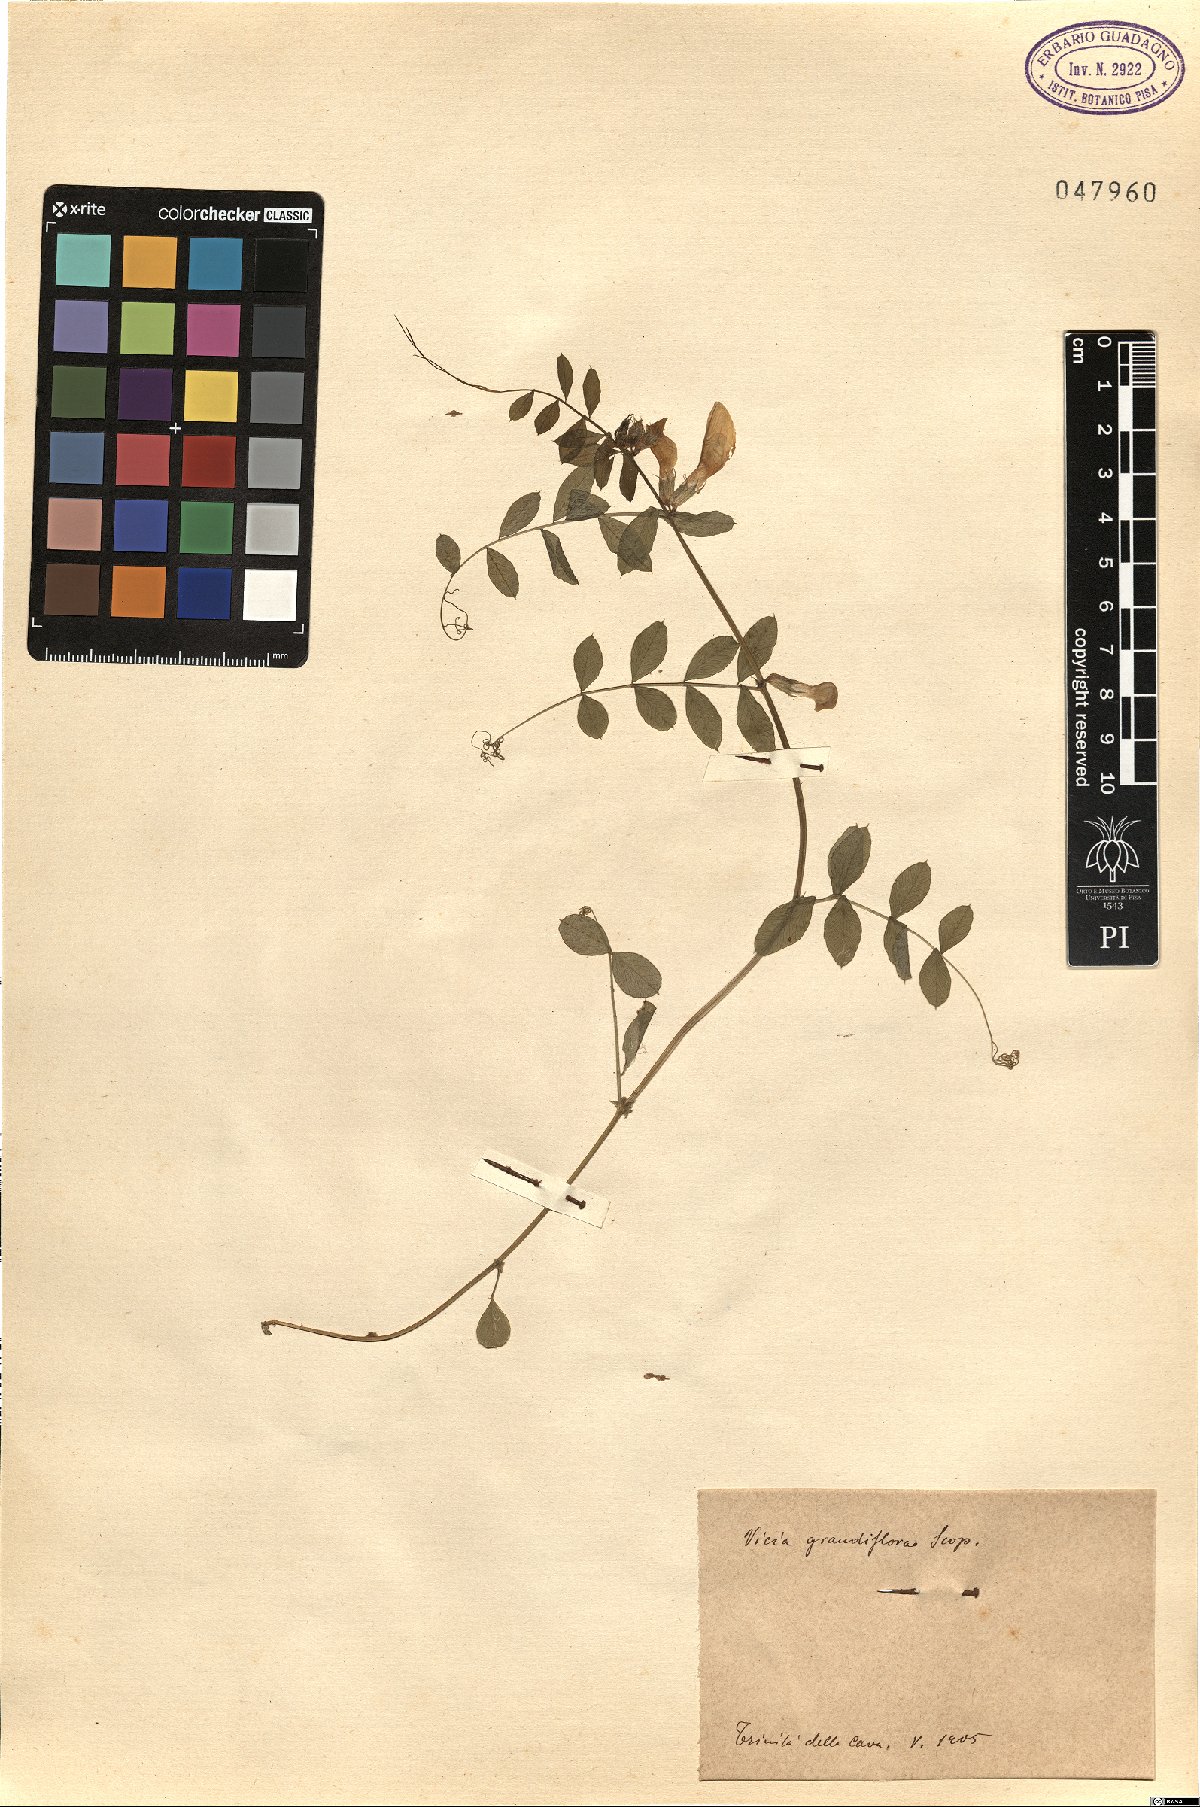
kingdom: Plantae
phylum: Tracheophyta
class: Magnoliopsida
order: Fabales
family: Fabaceae
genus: Vicia
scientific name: Vicia grandiflora
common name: Large yellow vetch
